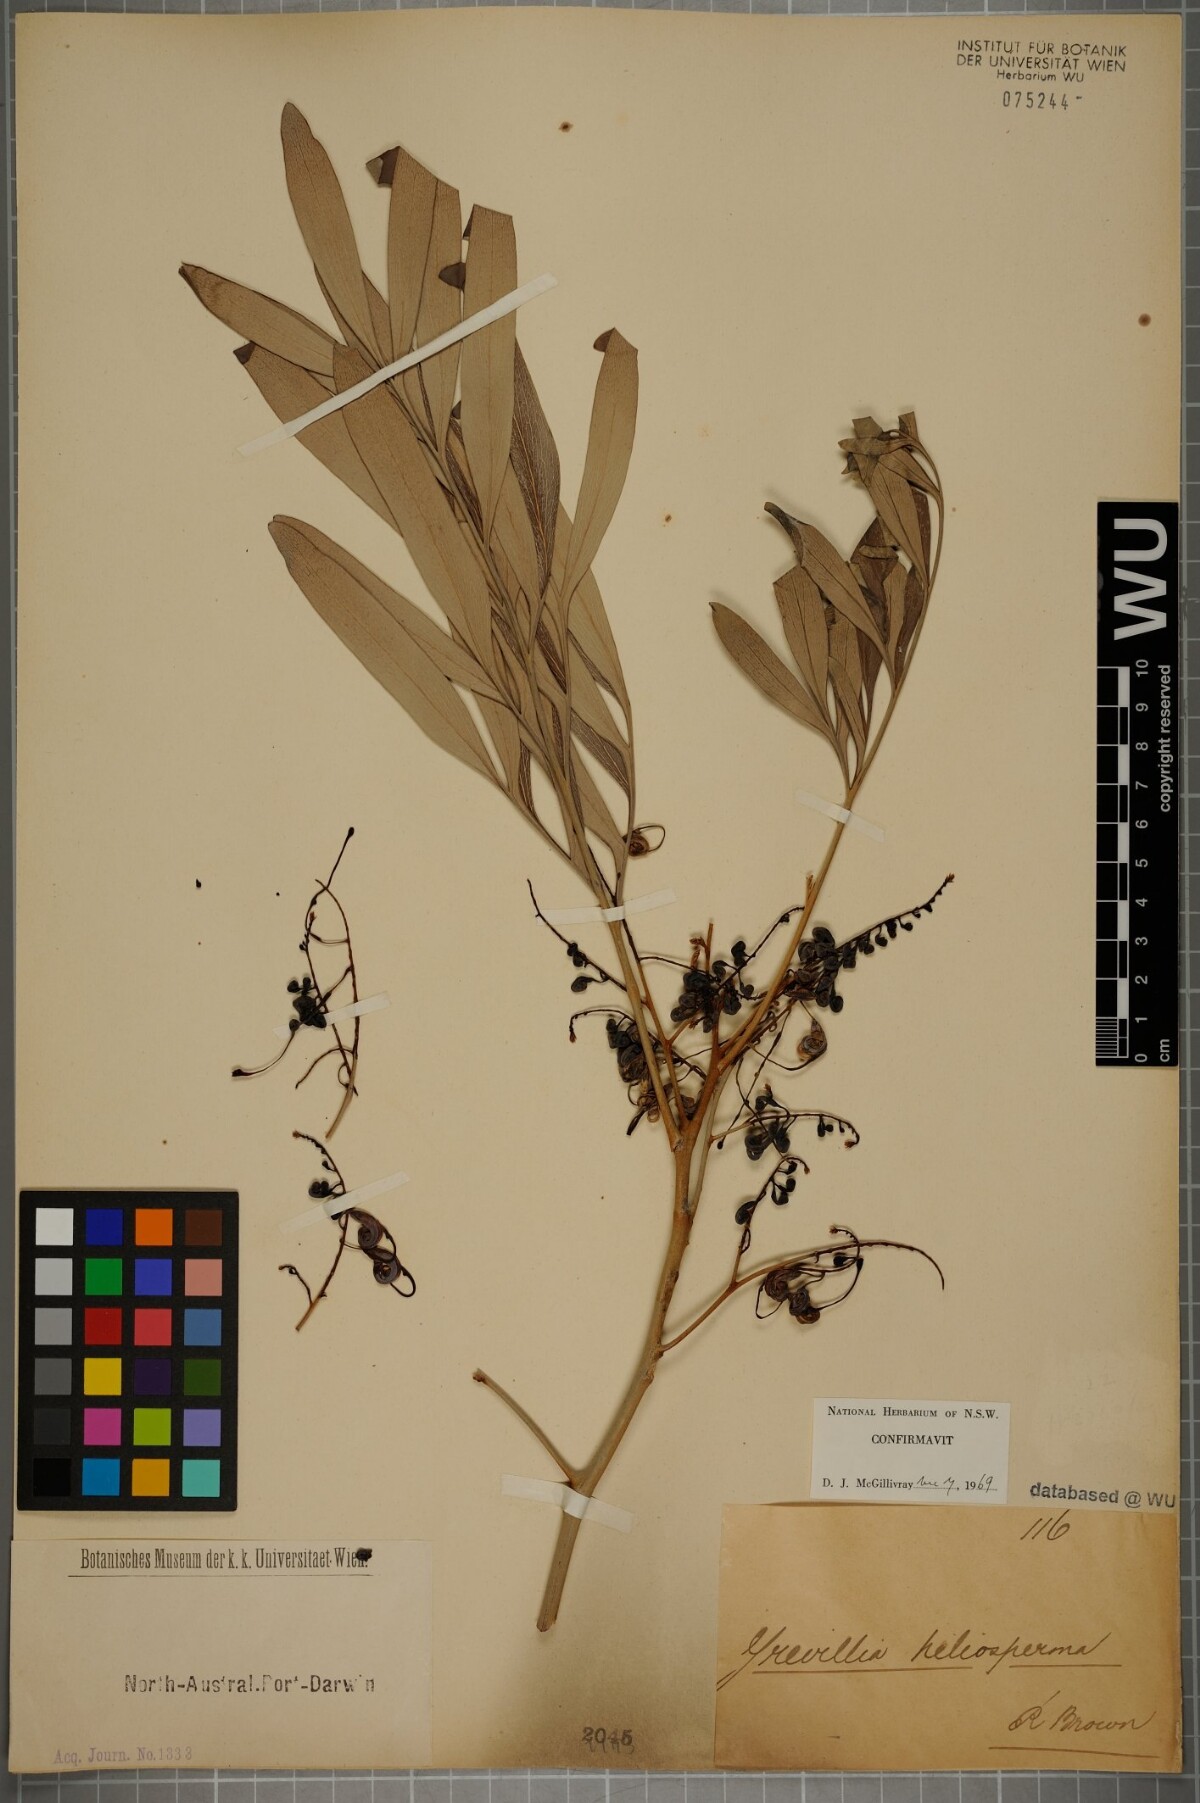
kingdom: Plantae
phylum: Tracheophyta
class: Magnoliopsida
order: Proteales
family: Proteaceae
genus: Grevillea
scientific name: Grevillea heliosperma
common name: Rock grevillea
